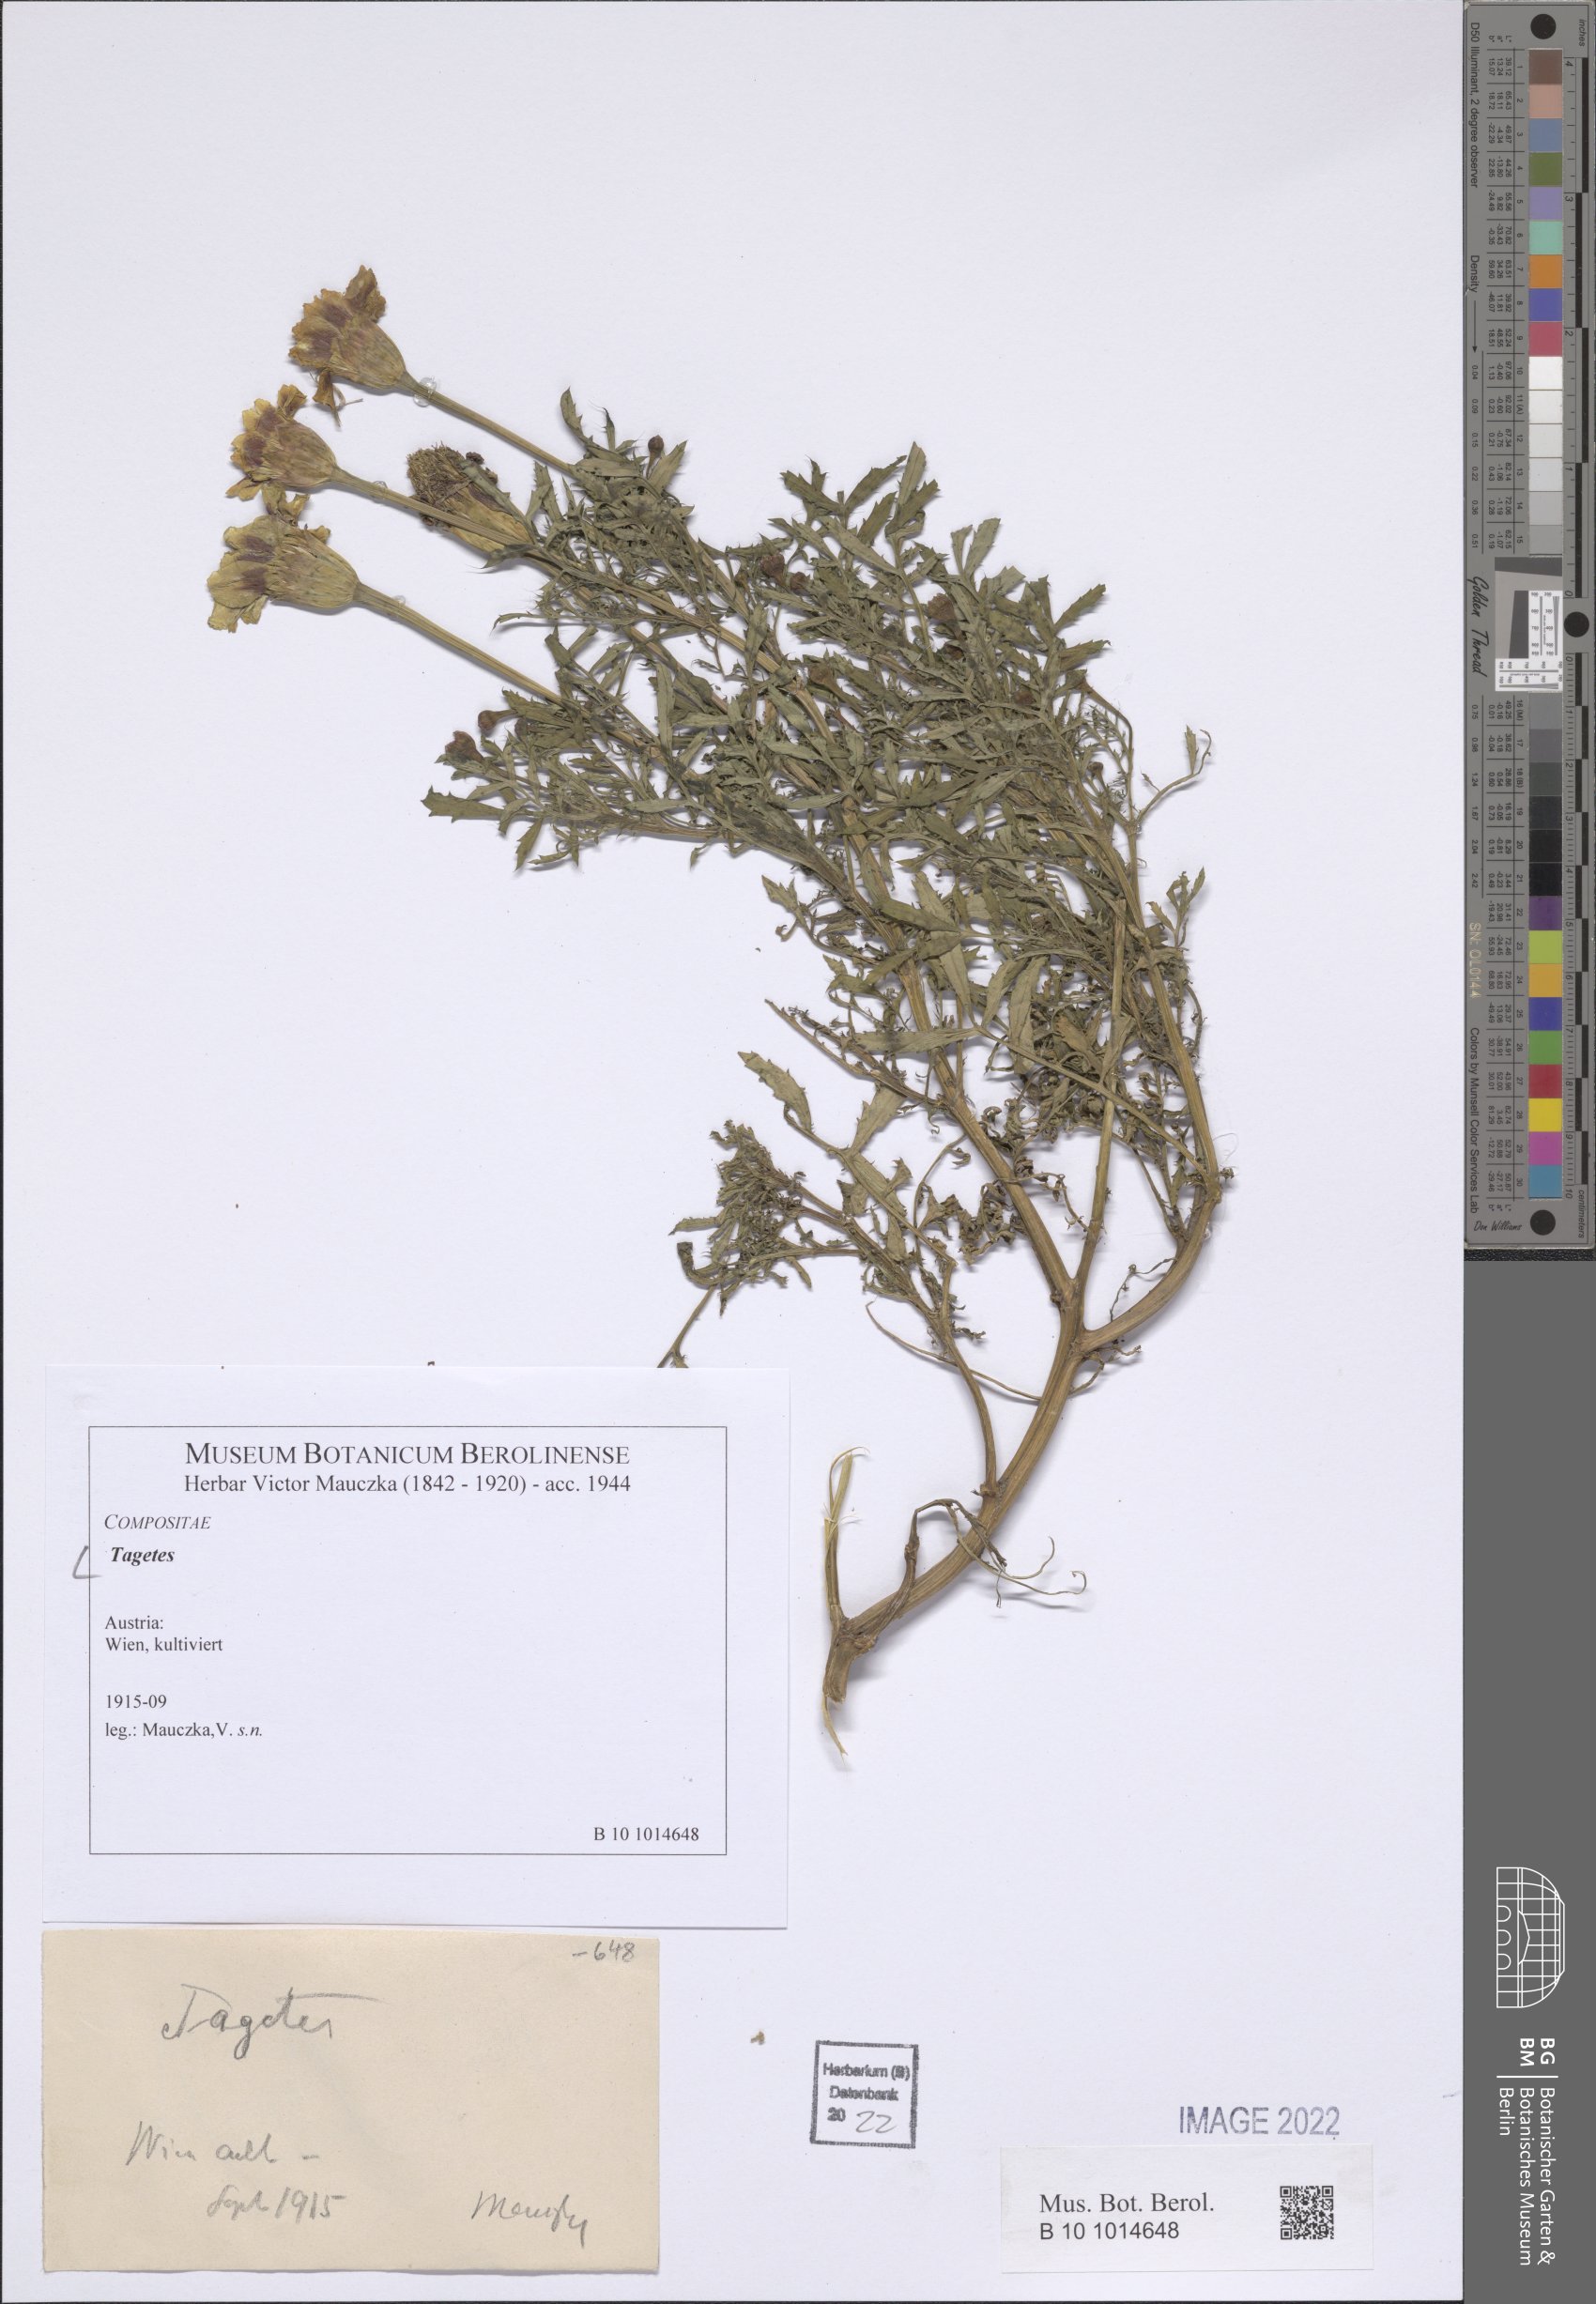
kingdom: Plantae
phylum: Tracheophyta
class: Magnoliopsida
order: Asterales
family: Asteraceae
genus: Tagetes
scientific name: Tagetes
